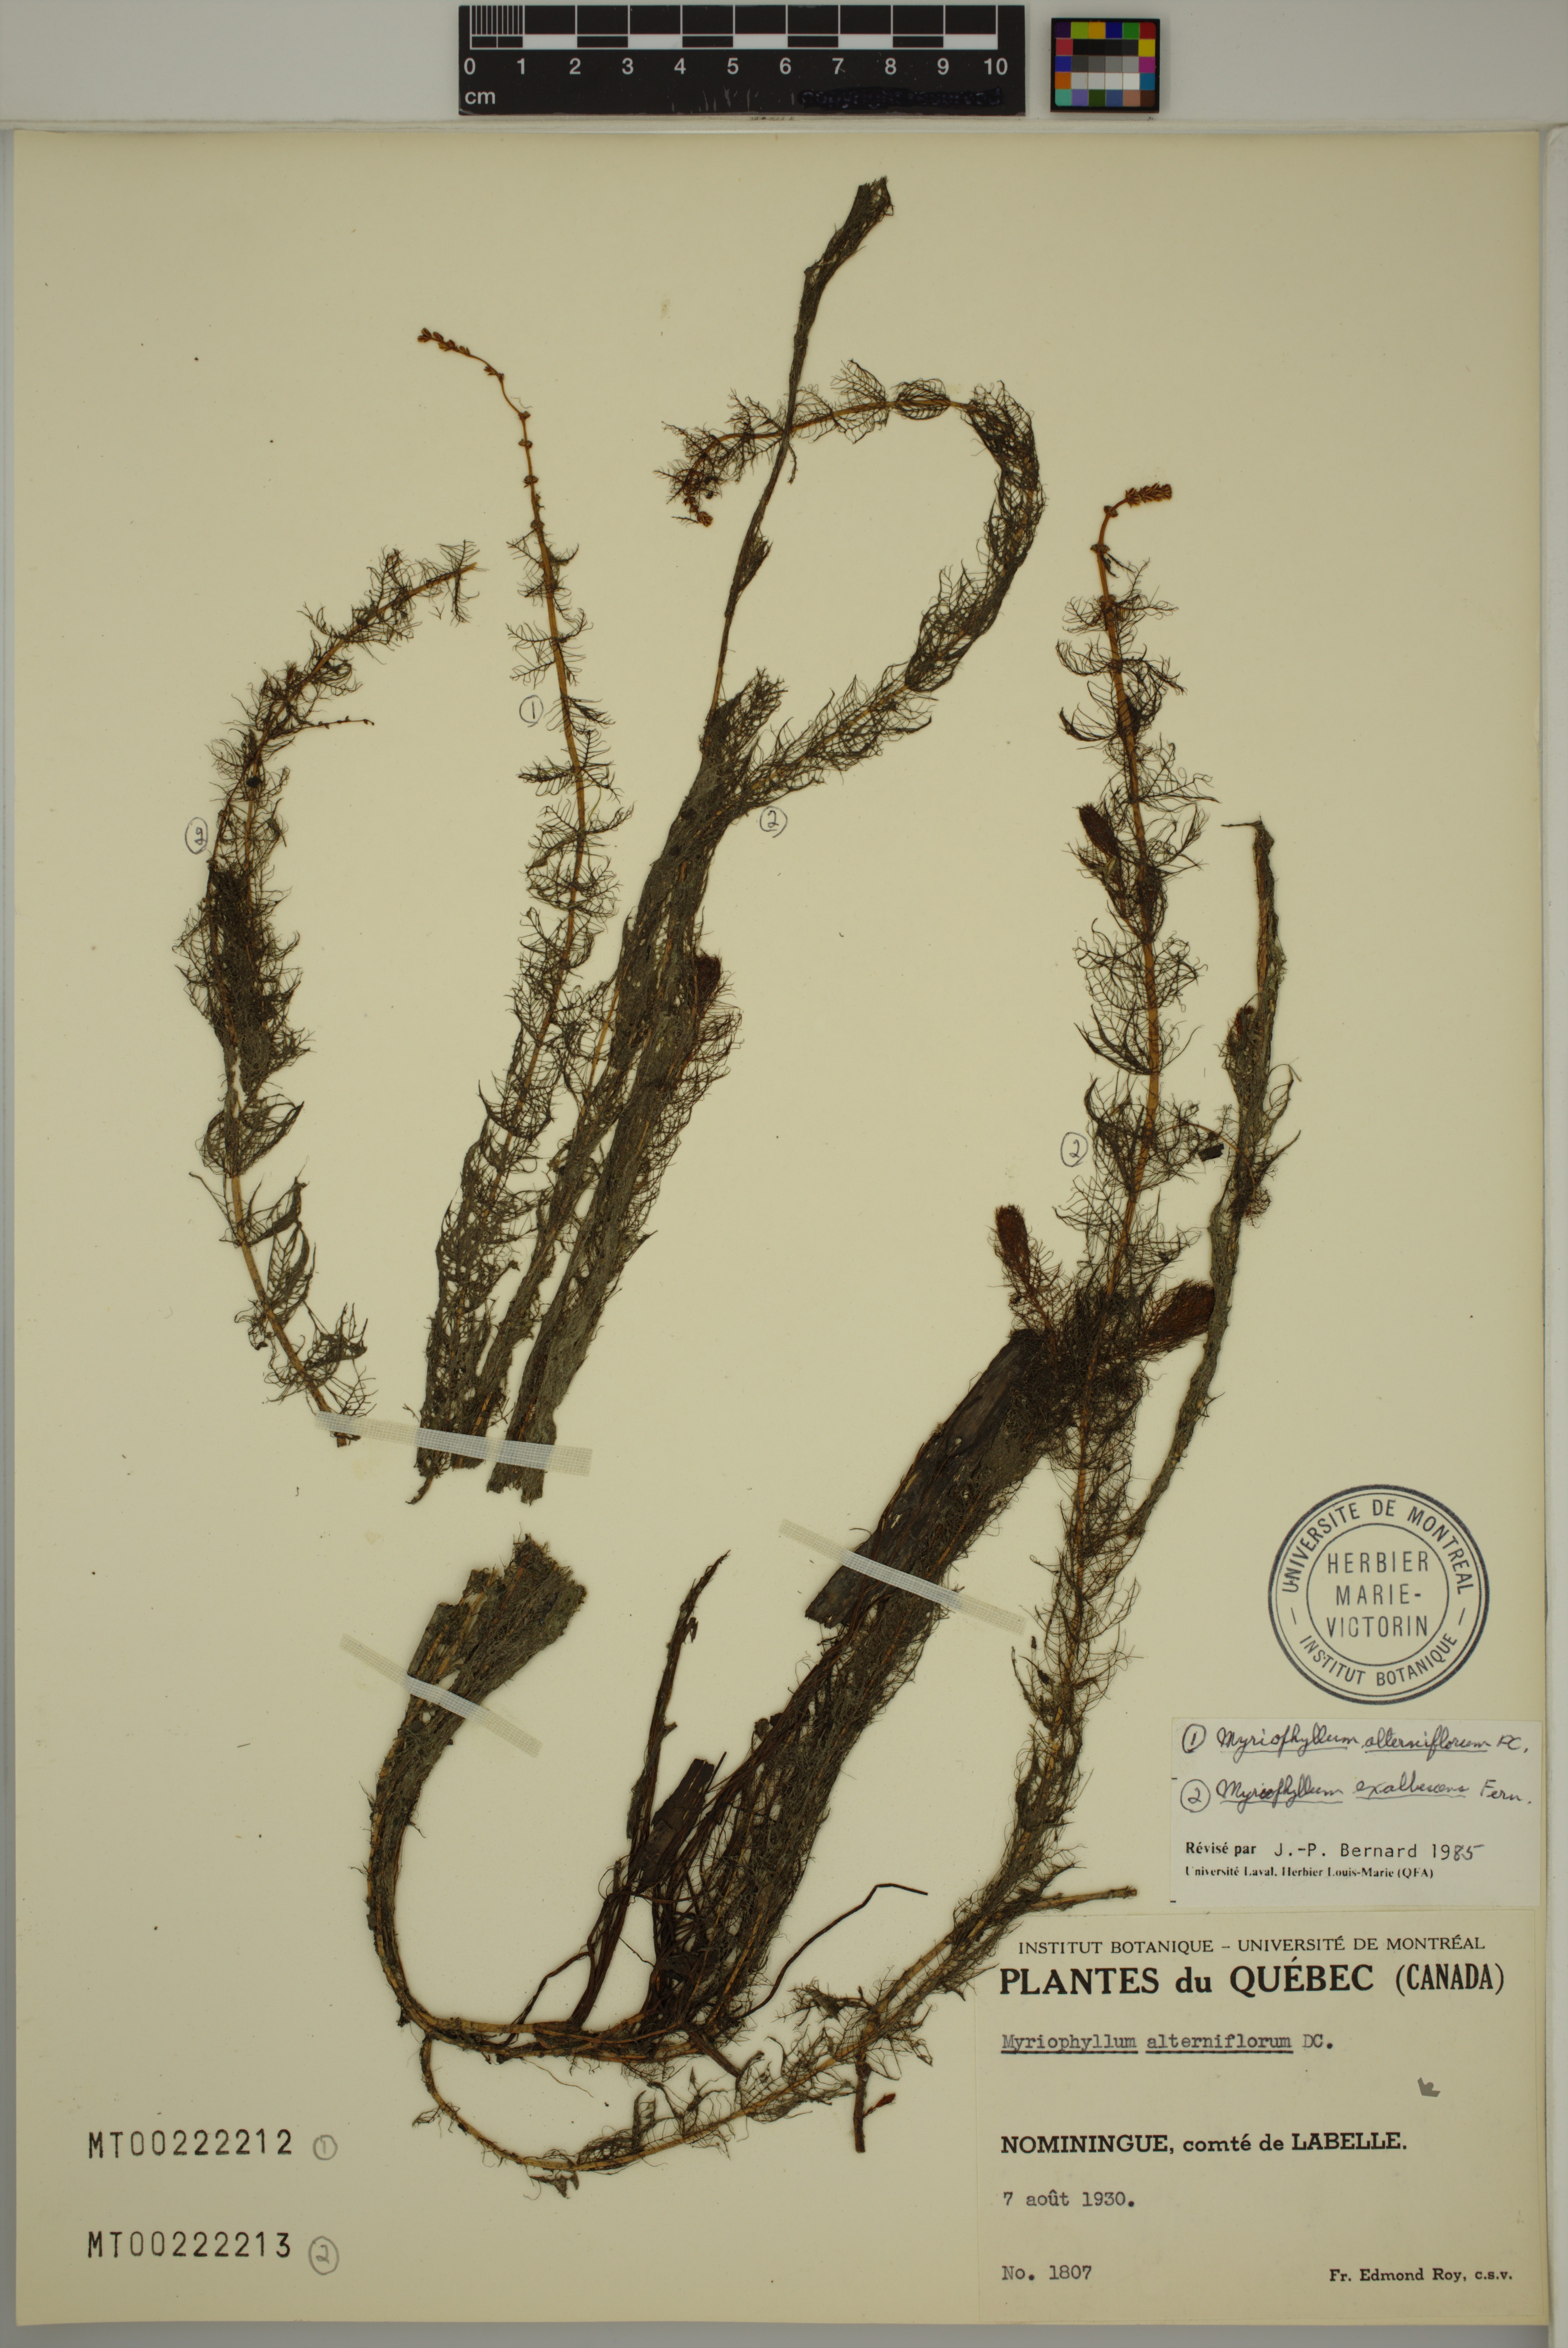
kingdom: Plantae
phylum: Tracheophyta
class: Magnoliopsida
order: Saxifragales
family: Haloragaceae
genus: Myriophyllum
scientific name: Myriophyllum sibiricum
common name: Siberian water-milfoil
